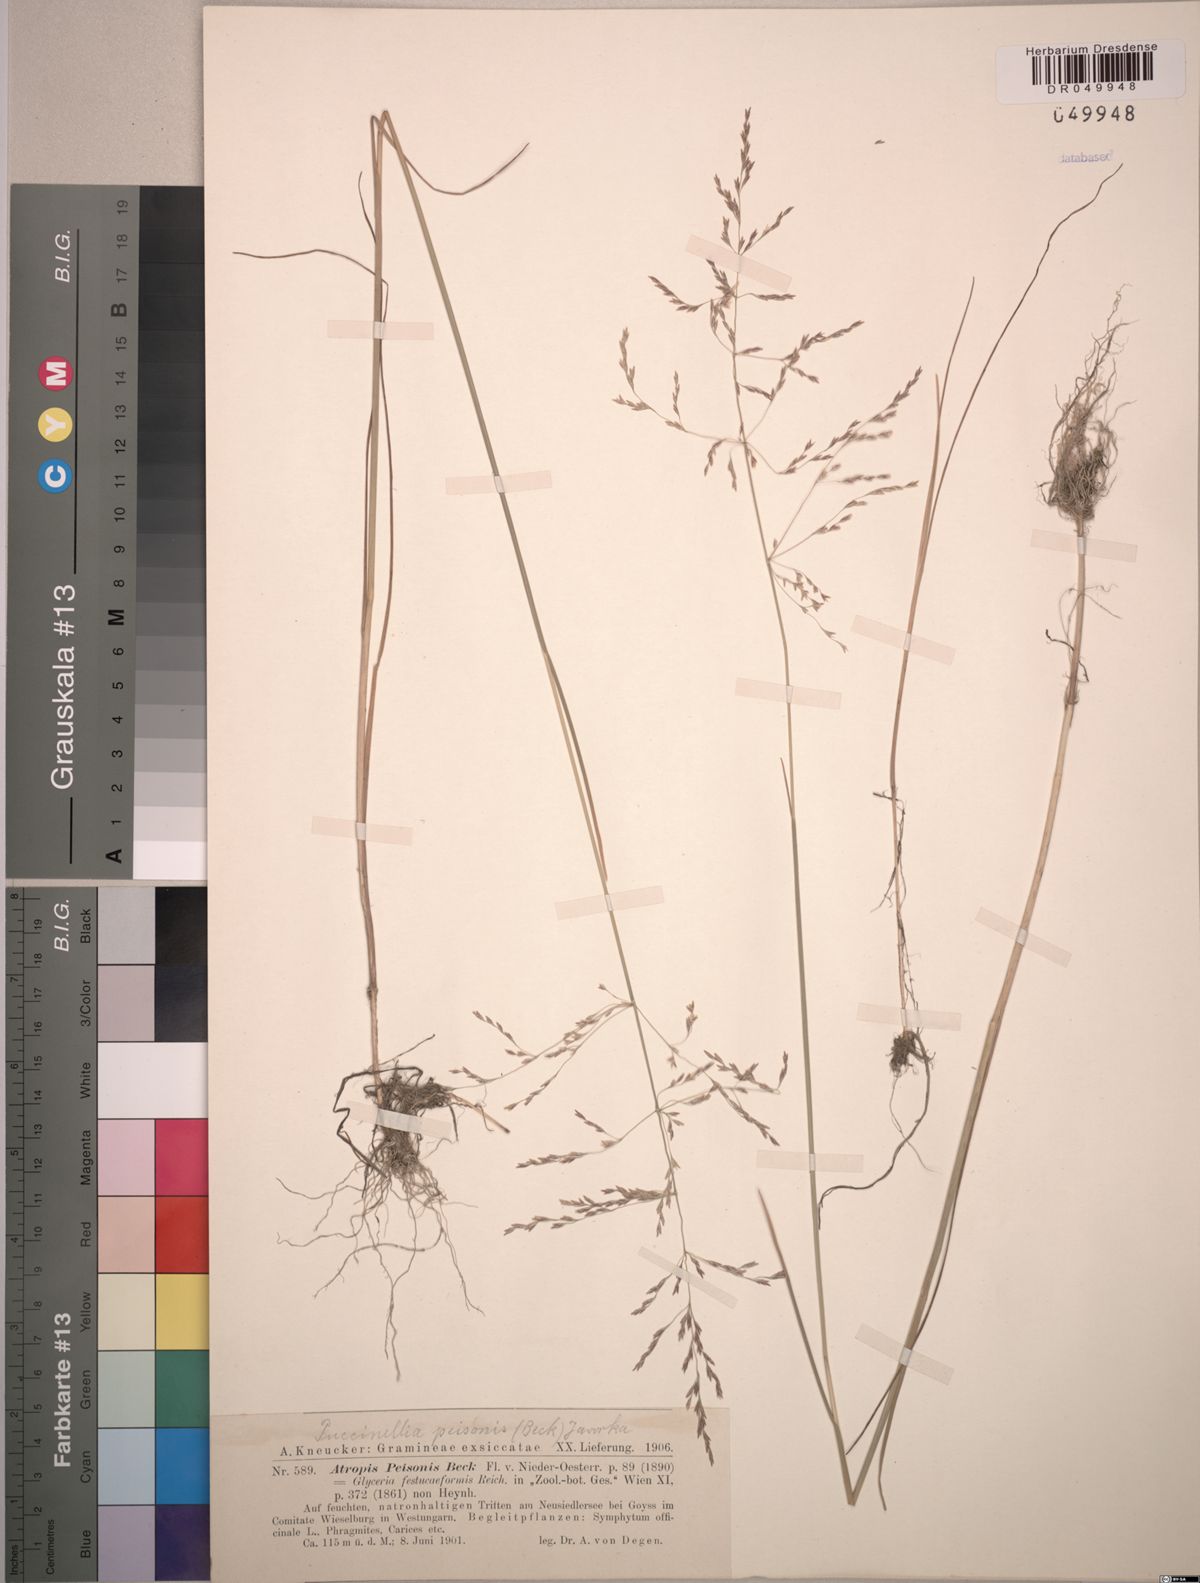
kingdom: Plantae
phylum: Tracheophyta
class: Liliopsida
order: Poales
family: Poaceae
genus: Puccinellia
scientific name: Puccinellia intermedia
